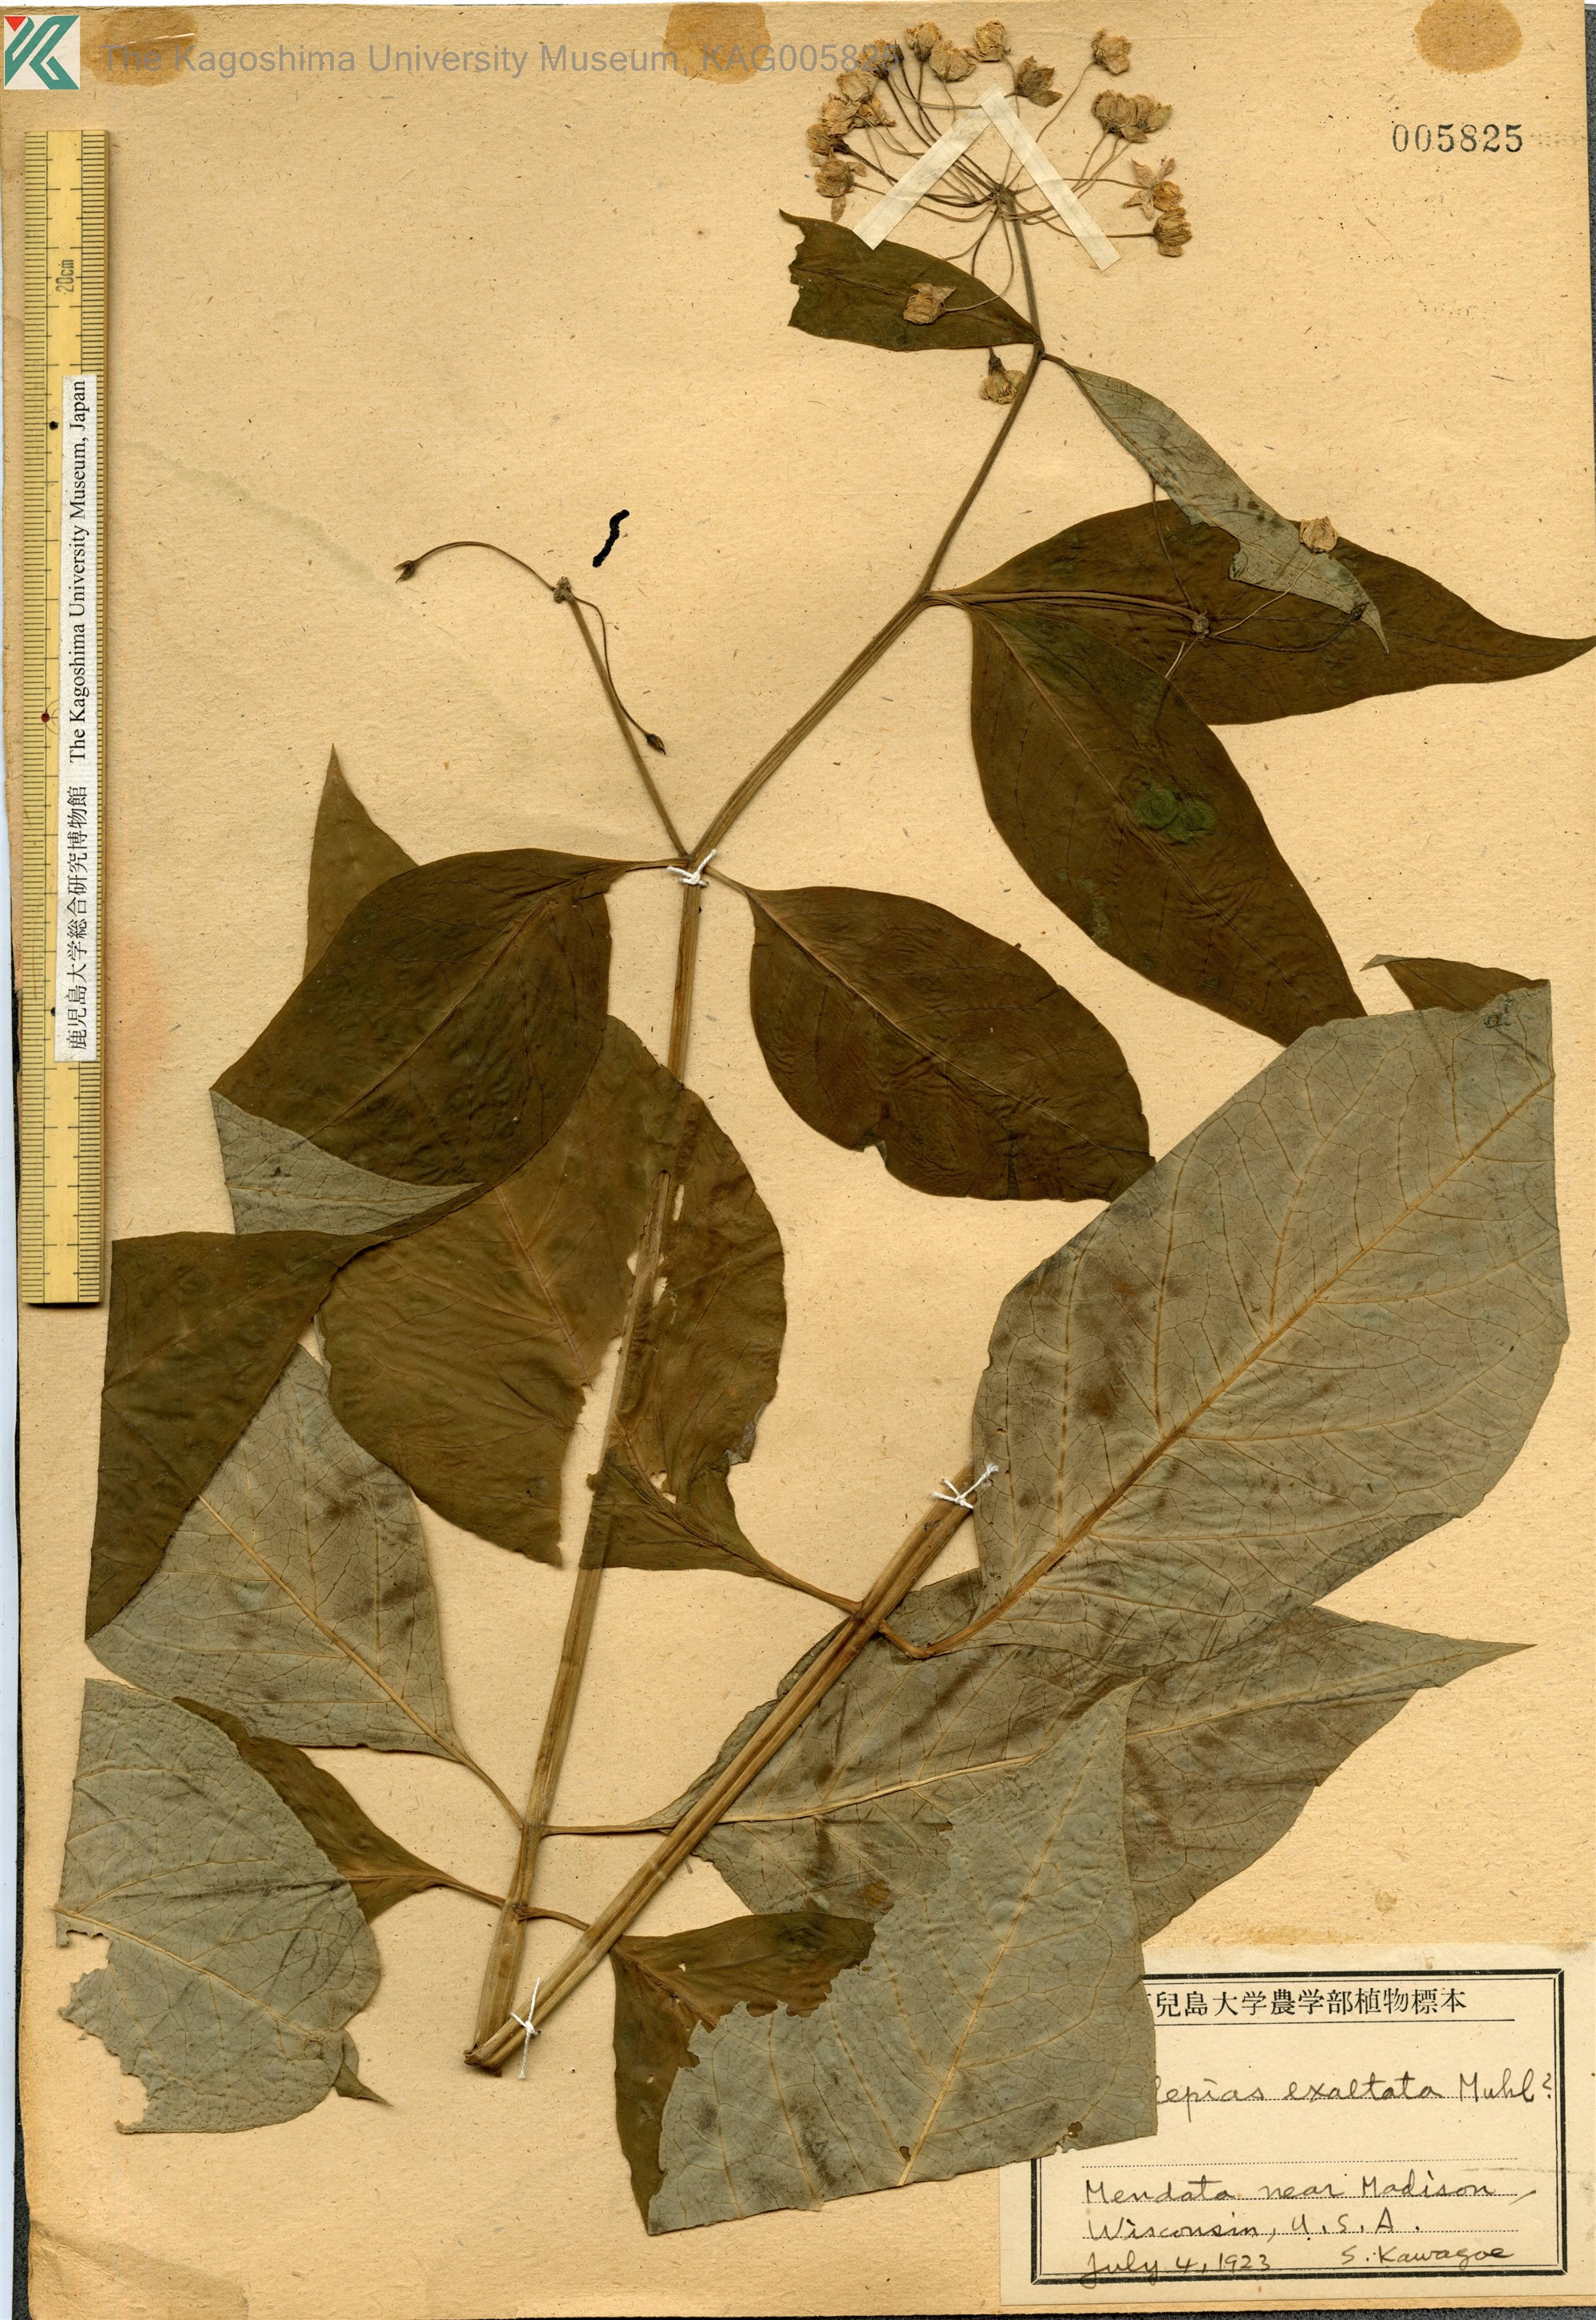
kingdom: Plantae
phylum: Tracheophyta
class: Magnoliopsida
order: Gentianales
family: Apocynaceae
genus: Asclepias
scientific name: Asclepias
